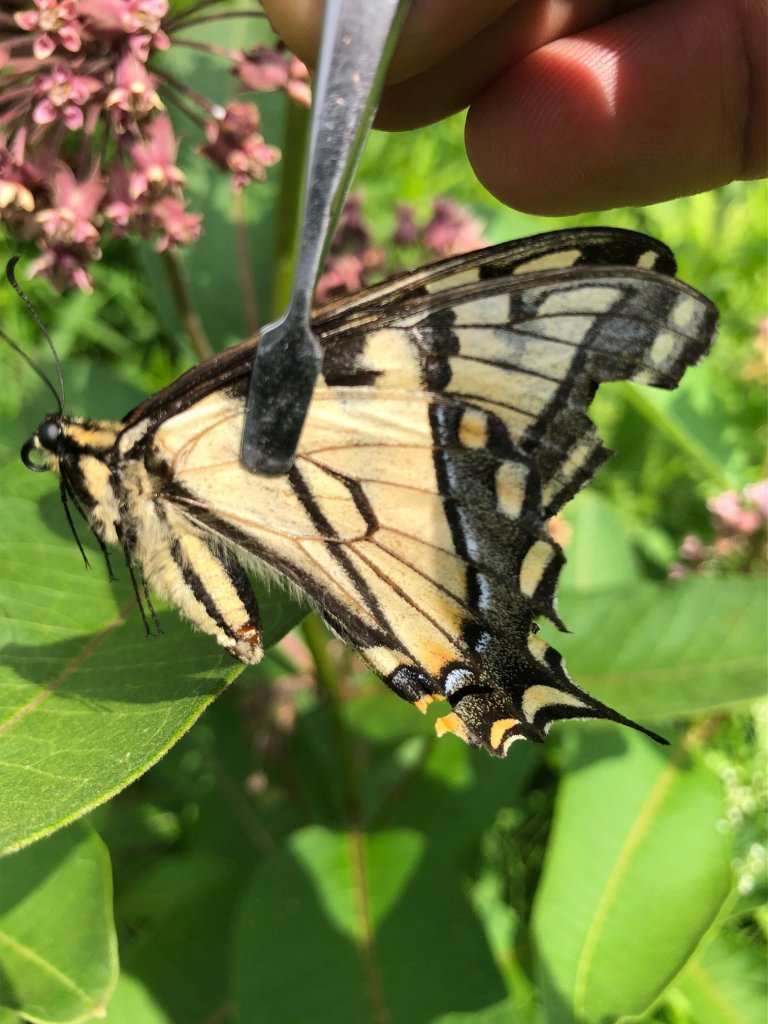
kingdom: Animalia
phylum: Arthropoda
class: Insecta
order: Lepidoptera
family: Papilionidae
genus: Papilio
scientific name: Papilio
